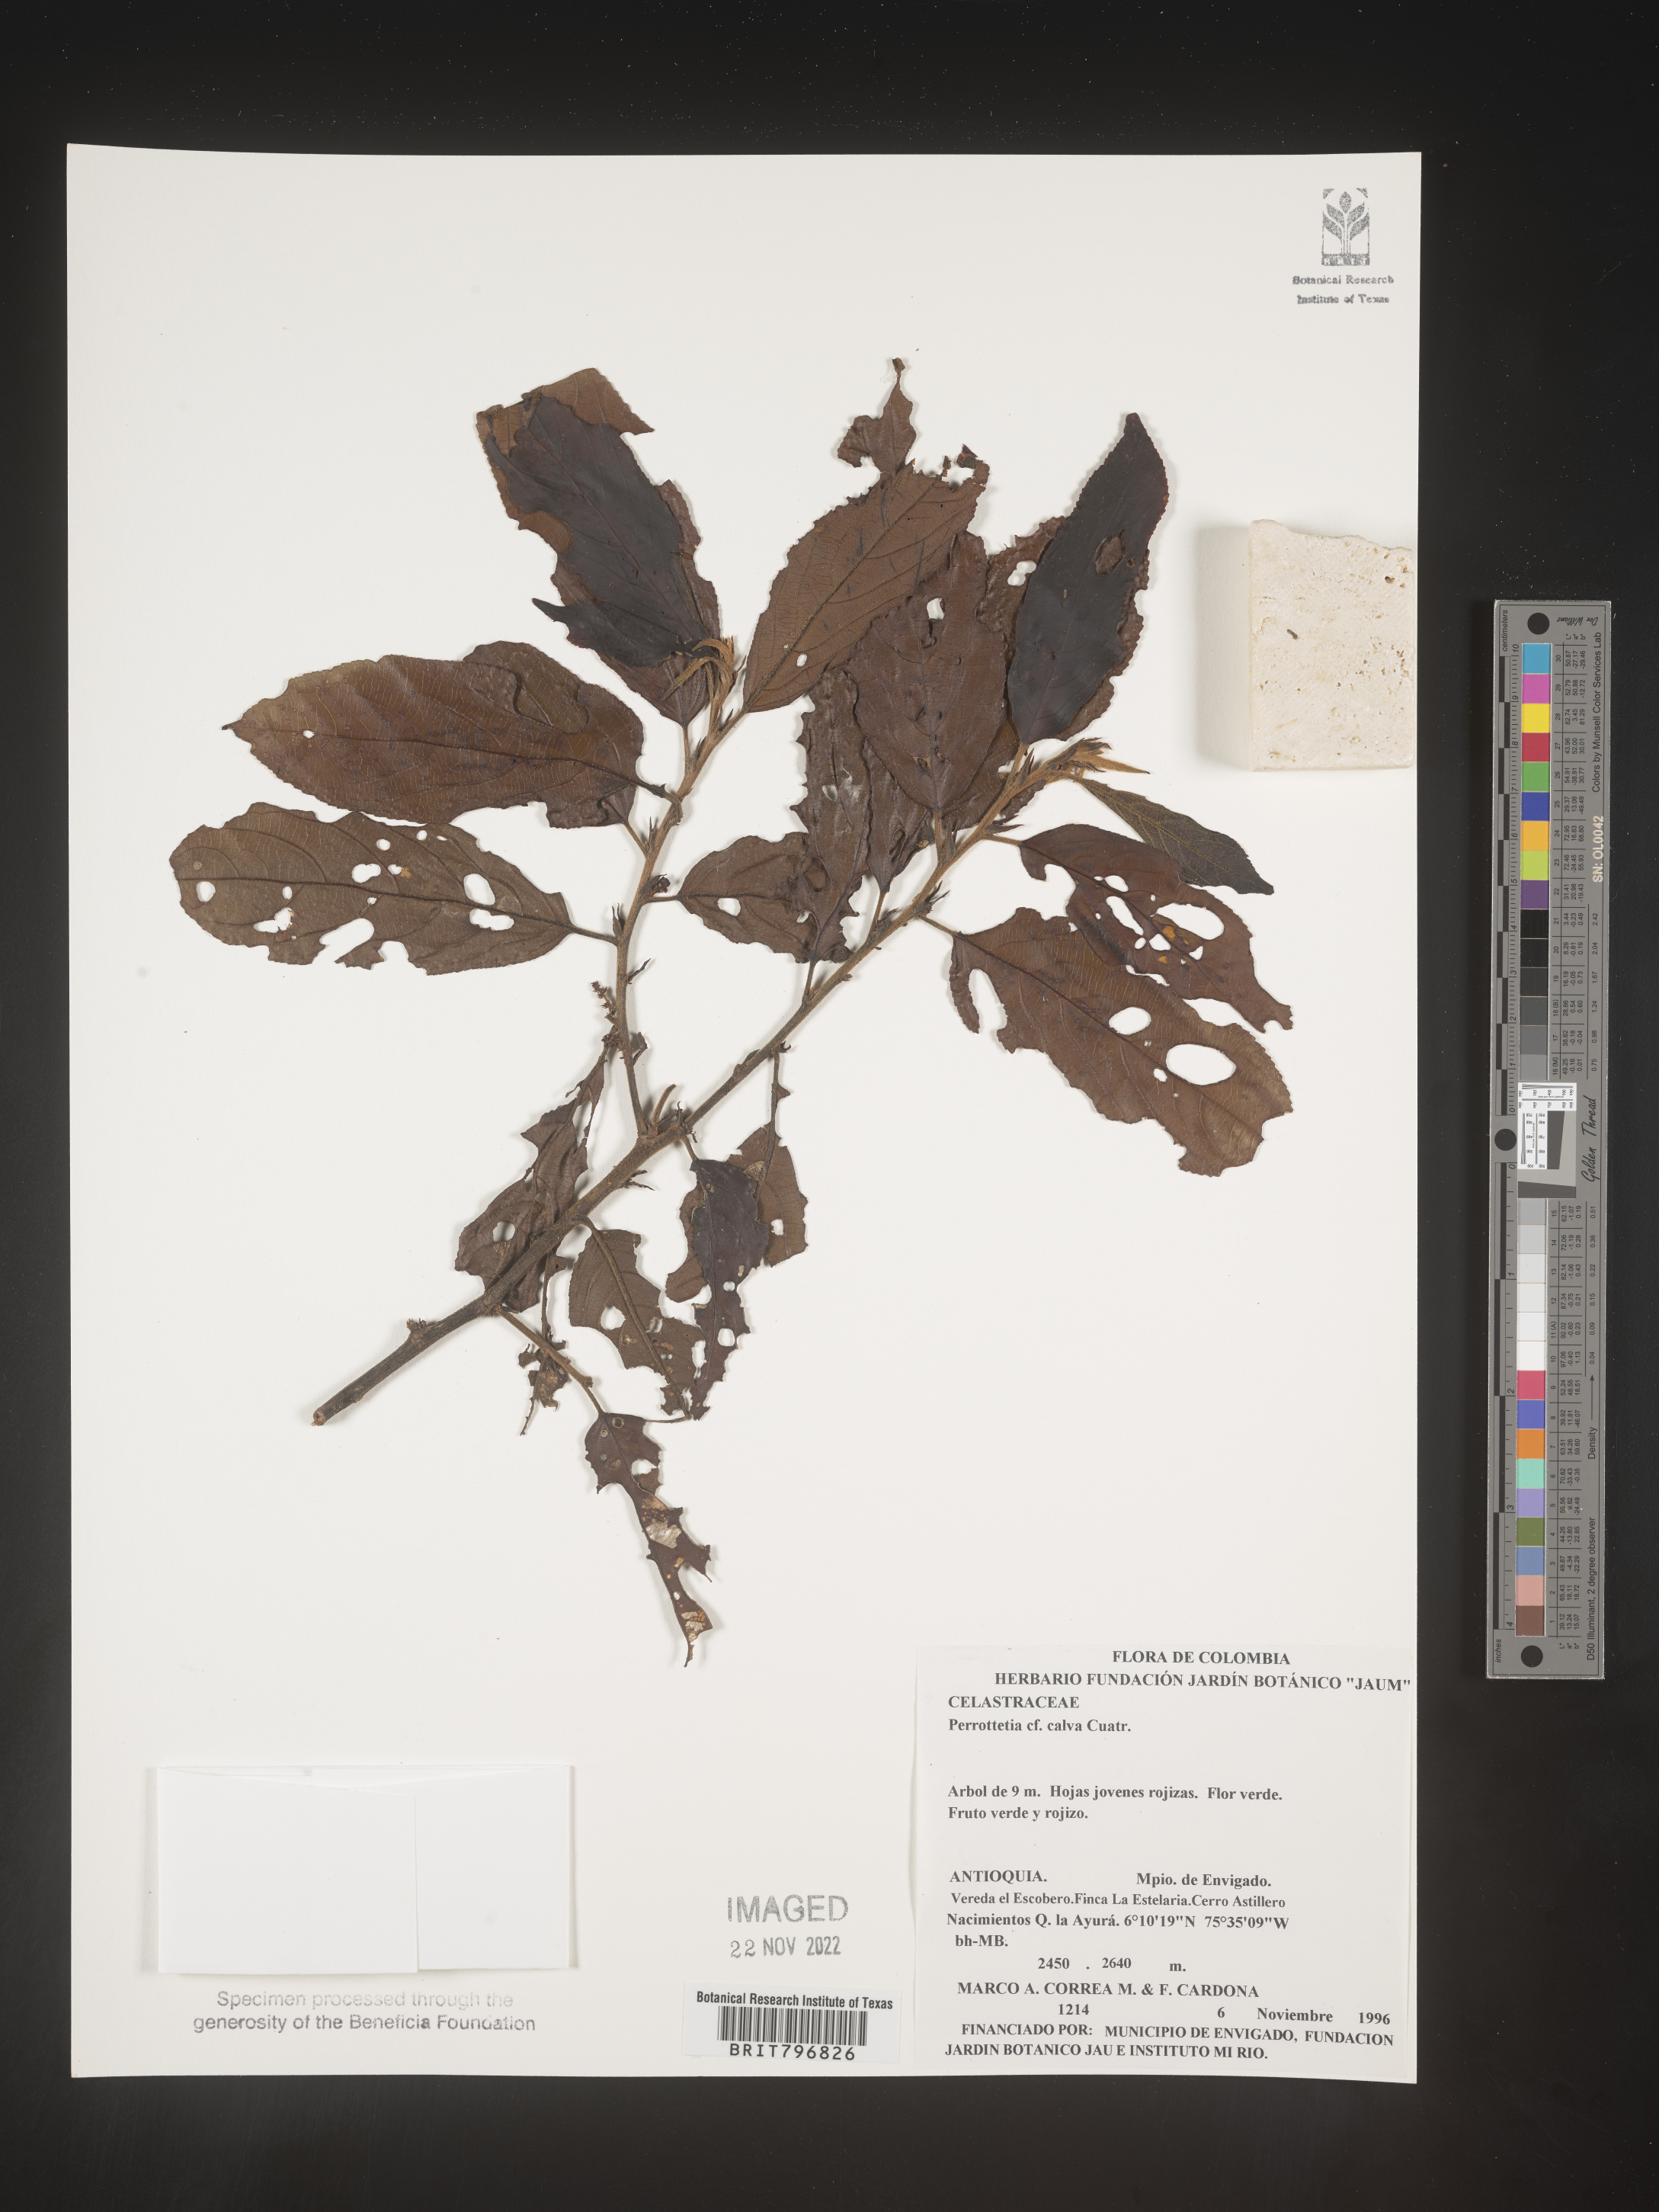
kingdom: Plantae
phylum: Tracheophyta
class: Magnoliopsida
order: Huerteales
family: Dipentodontaceae
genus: Perrottetia
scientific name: Perrottetia
